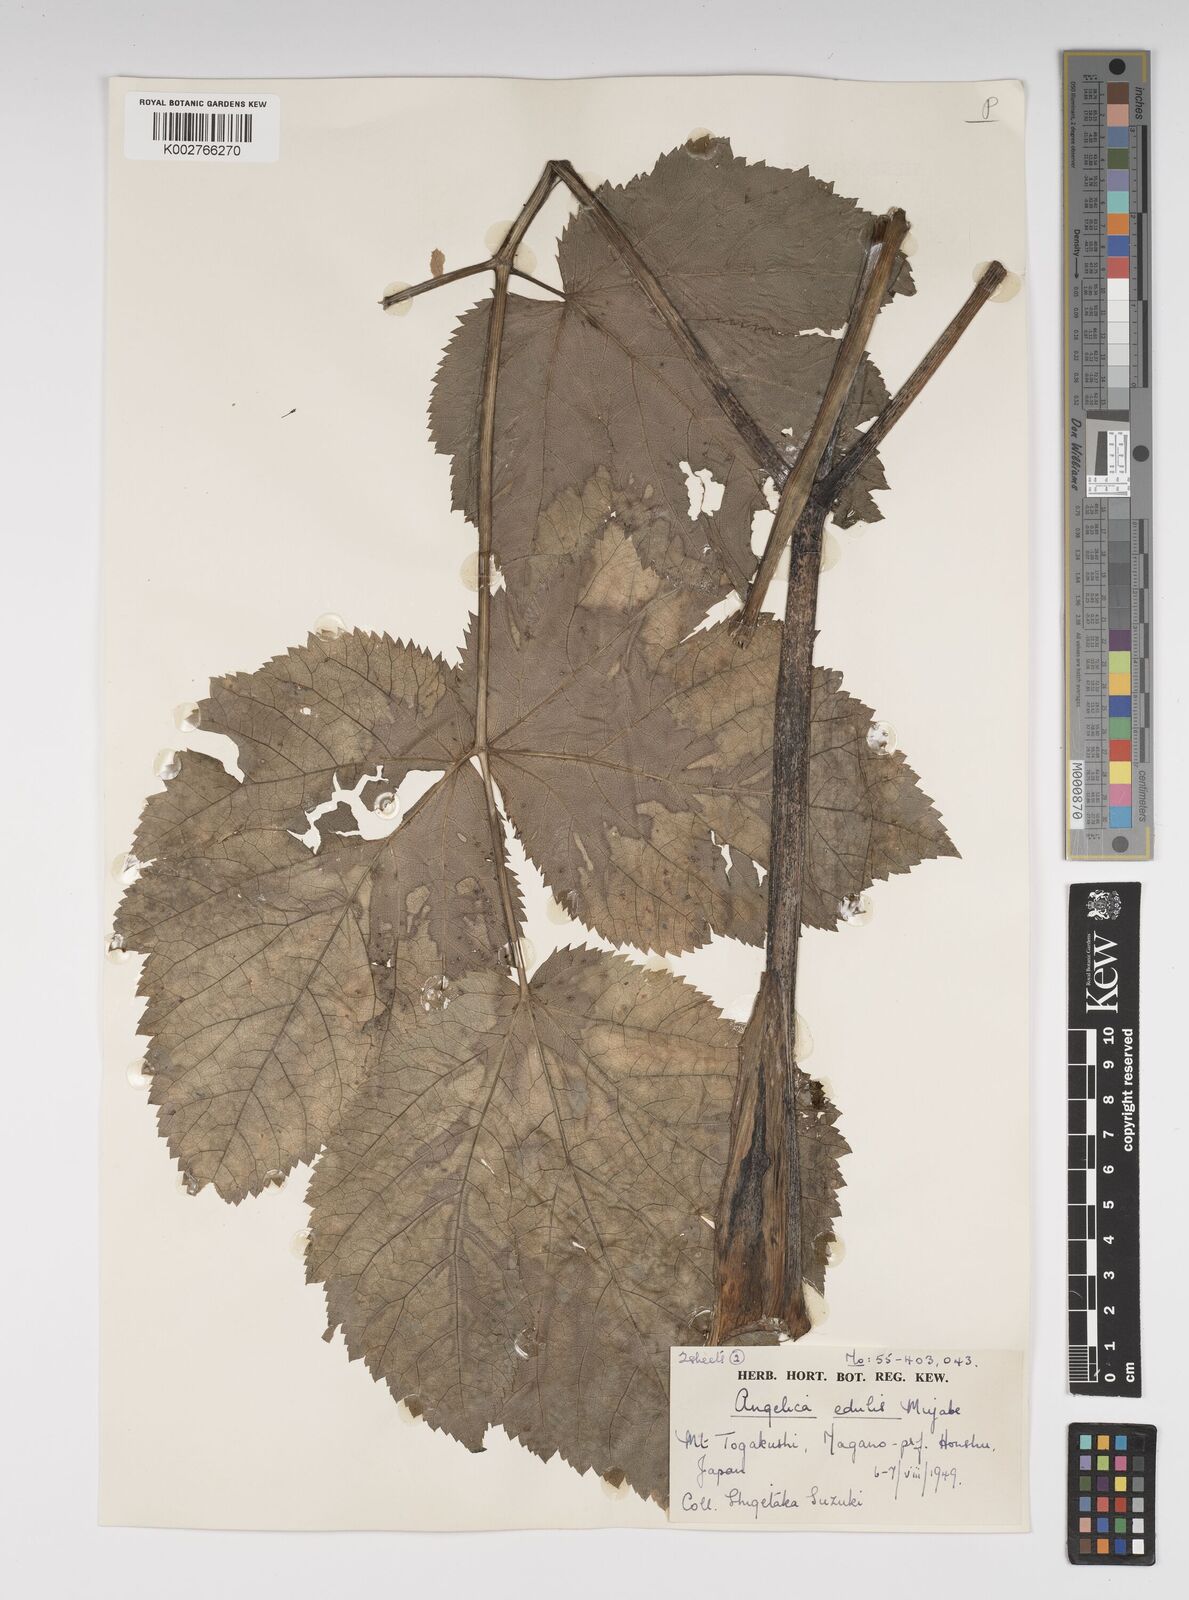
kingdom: Plantae
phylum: Tracheophyta
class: Magnoliopsida
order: Apiales
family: Apiaceae
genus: Angelica
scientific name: Angelica edulis
